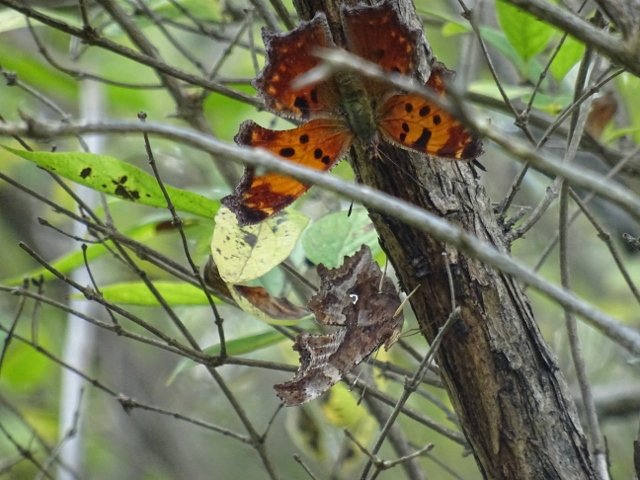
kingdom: Animalia
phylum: Arthropoda
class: Insecta
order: Lepidoptera
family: Nymphalidae
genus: Polygonia
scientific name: Polygonia comma
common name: Eastern Comma
